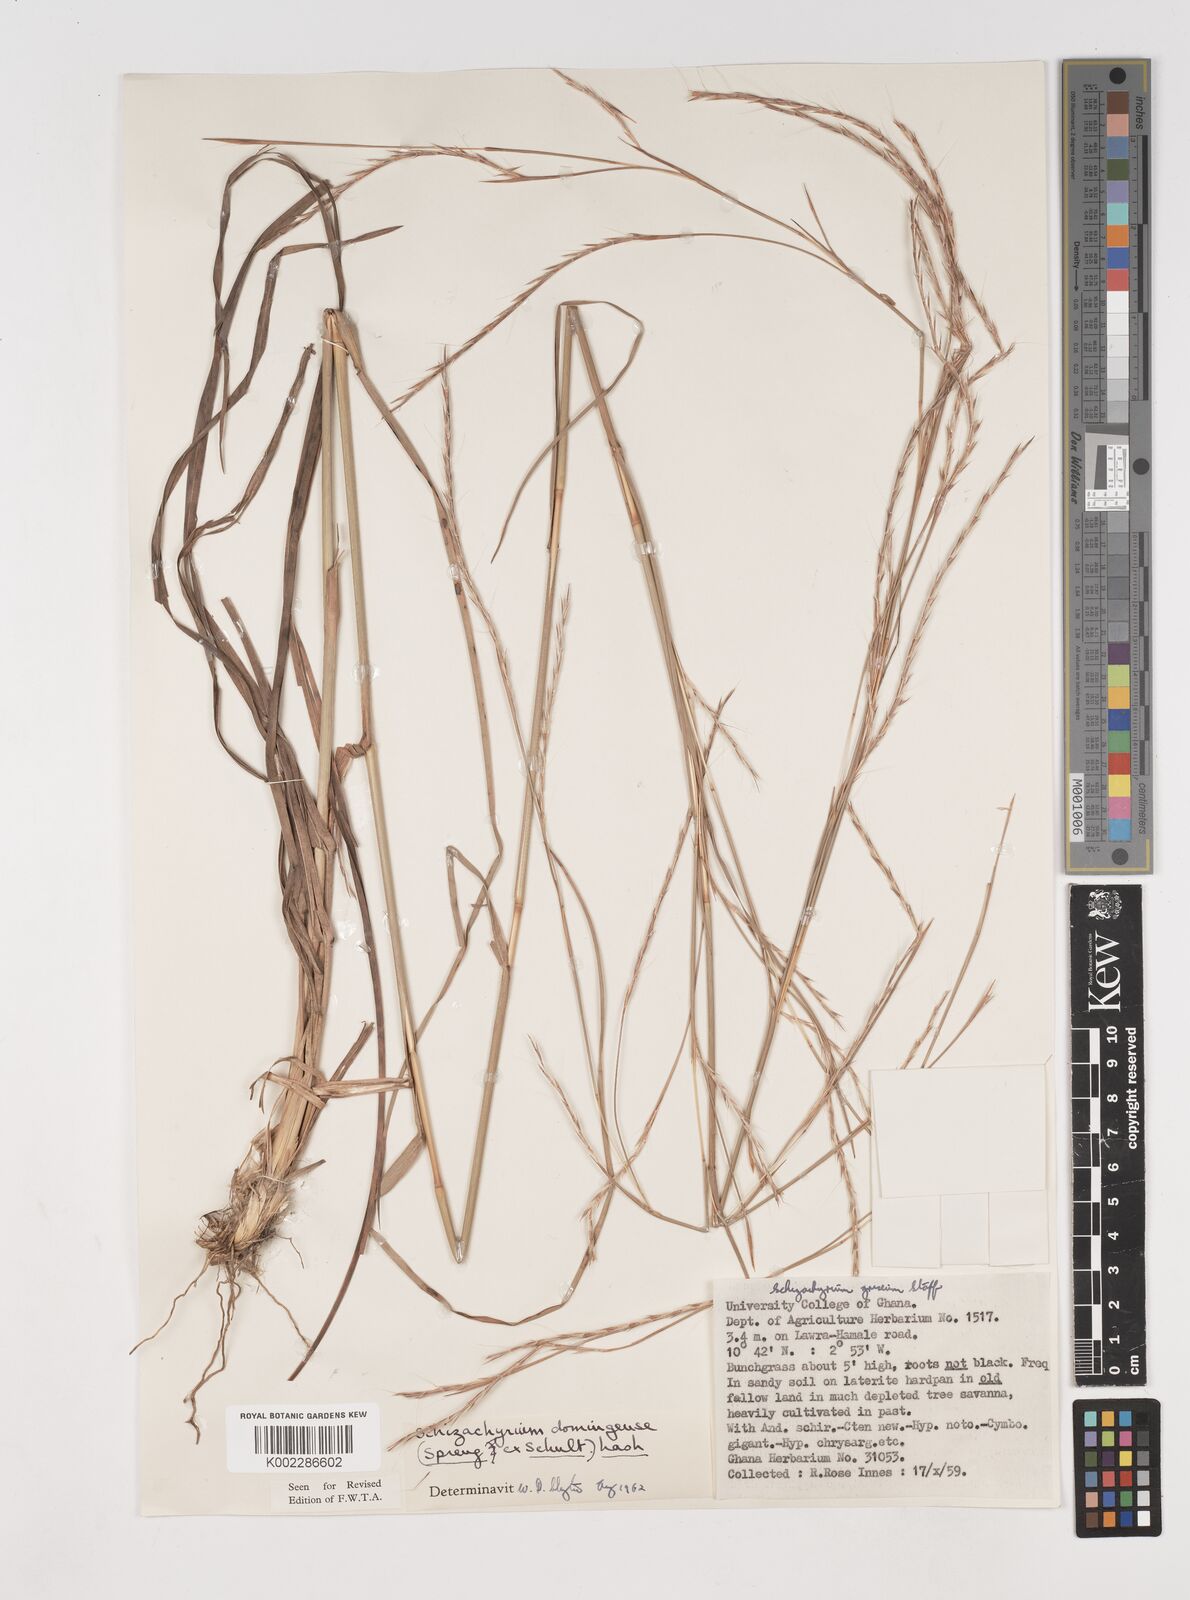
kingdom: Plantae
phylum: Tracheophyta
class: Liliopsida
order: Poales
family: Poaceae
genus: Schizachyrium
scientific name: Schizachyrium sanguineum
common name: Crimson bluestem
